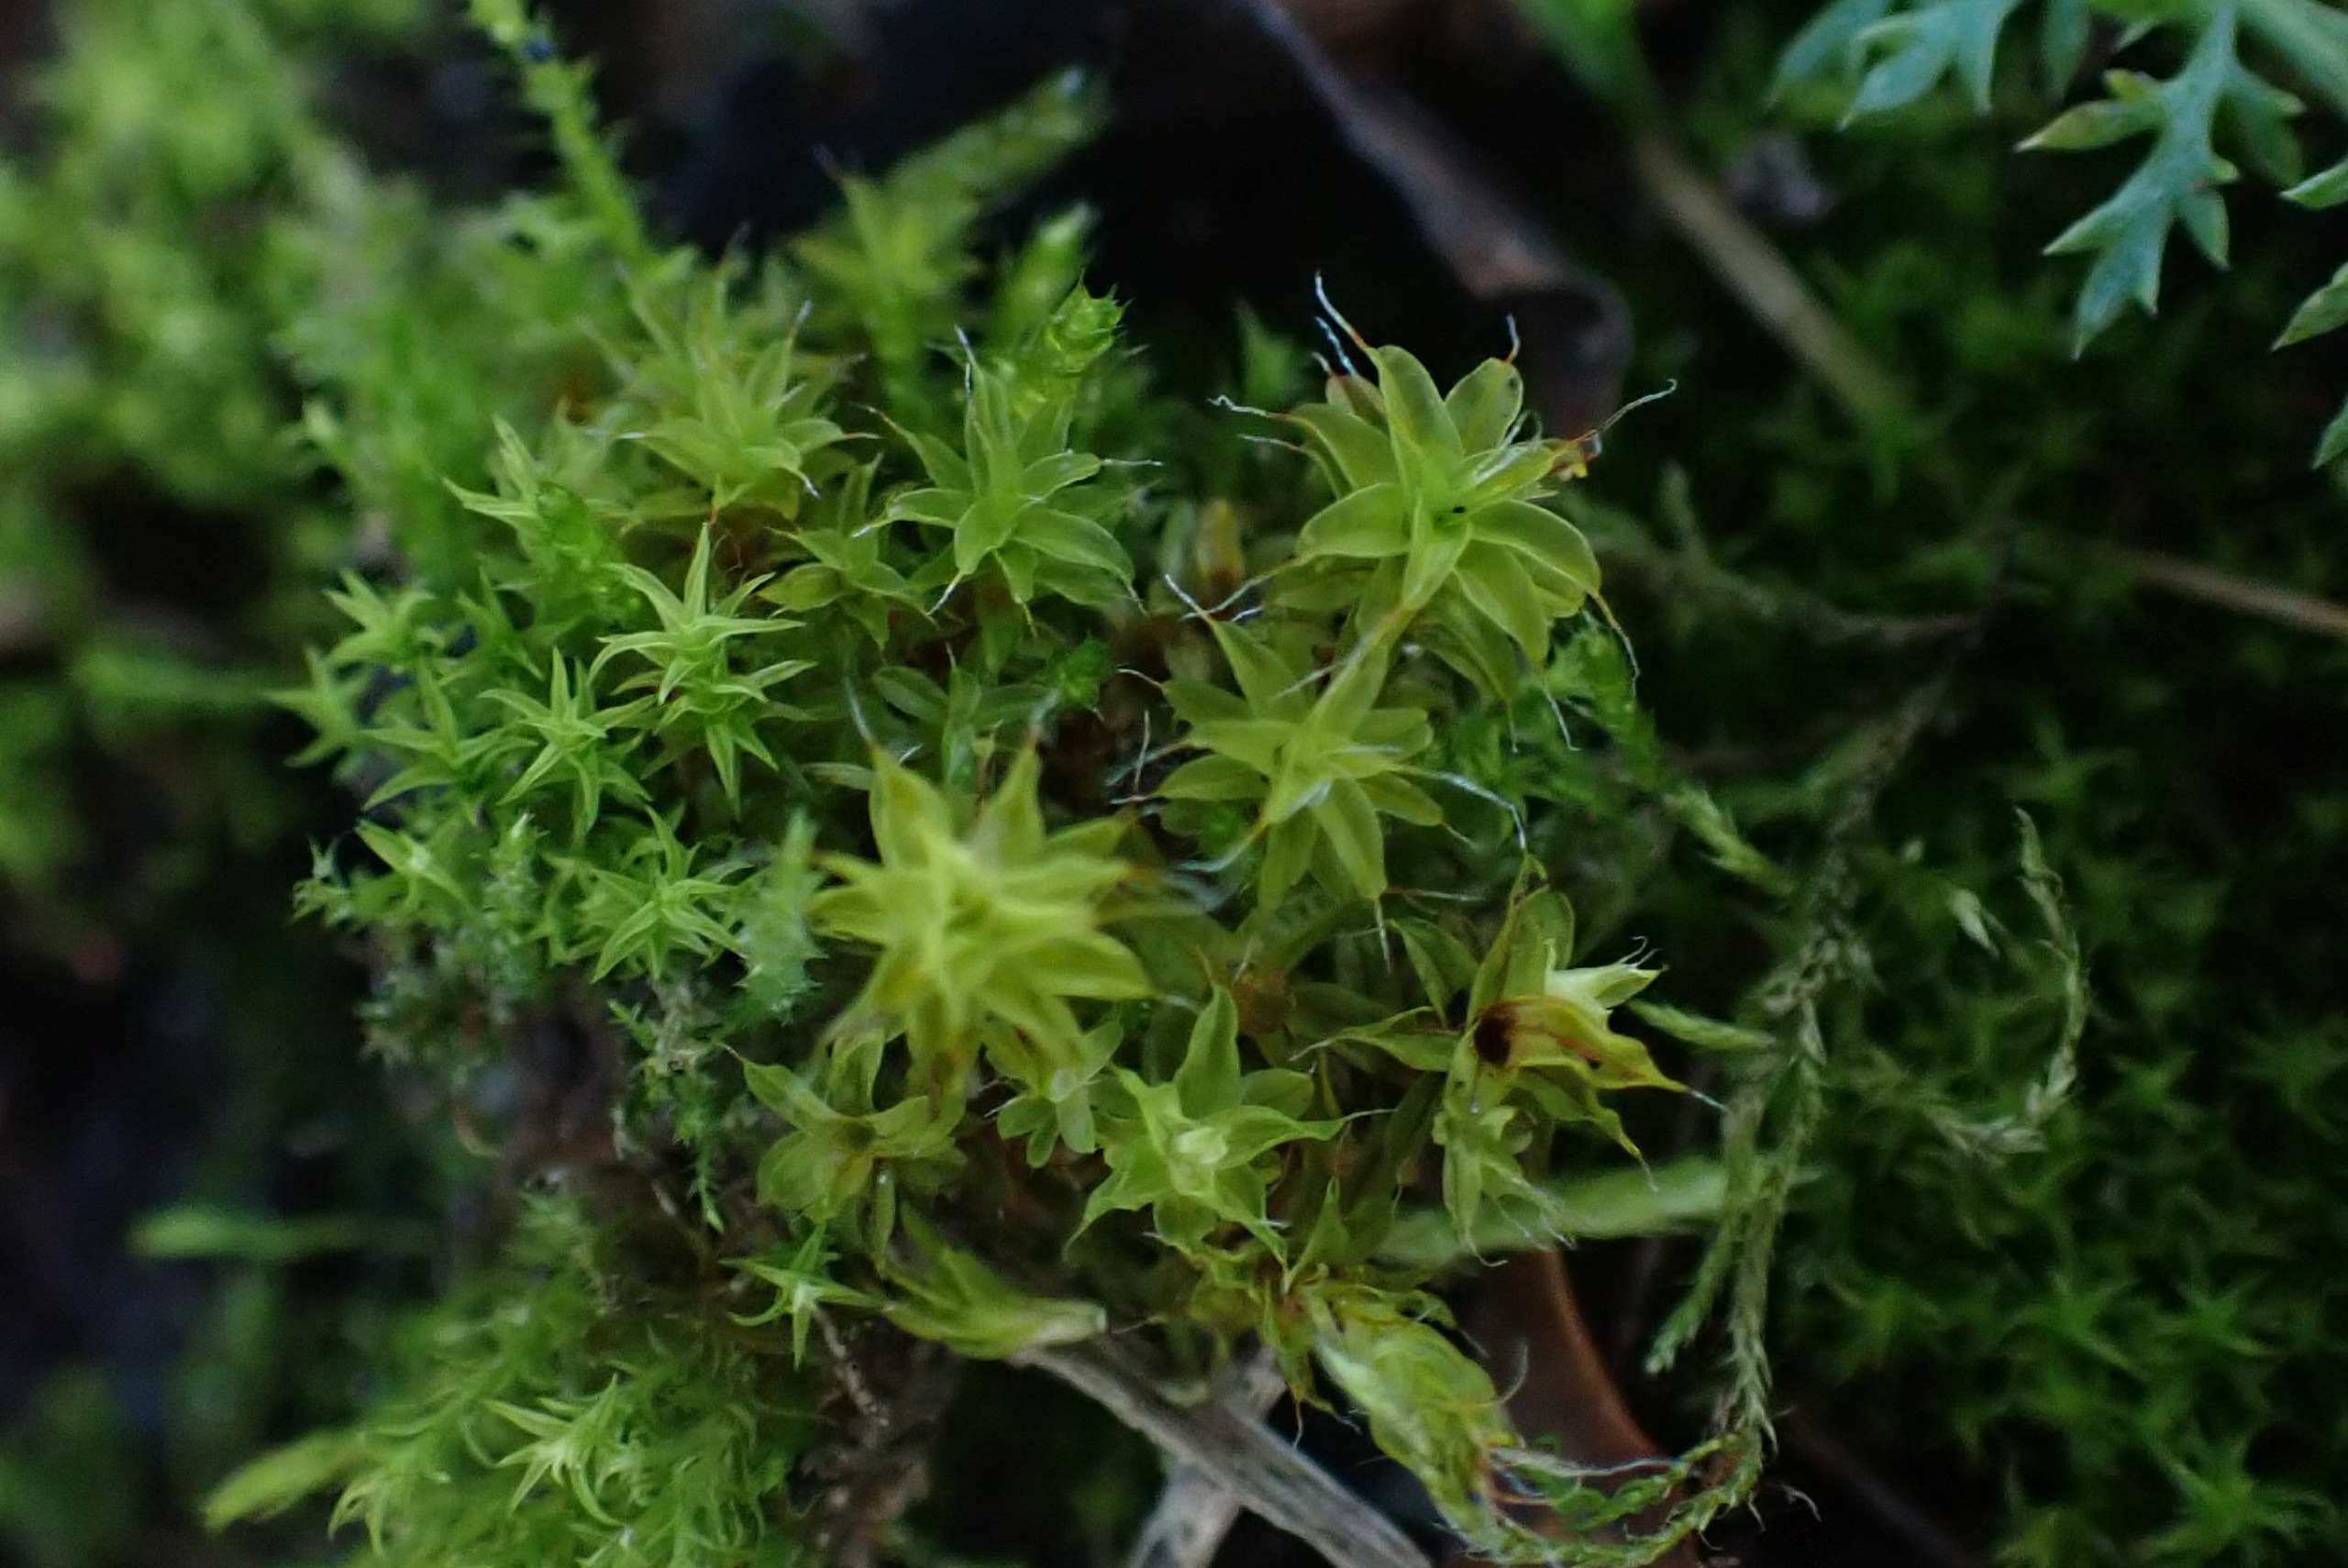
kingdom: Plantae
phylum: Bryophyta
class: Bryopsida
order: Pottiales
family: Pottiaceae
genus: Syntrichia
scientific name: Syntrichia ruralis
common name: Tag-hårstjerne
